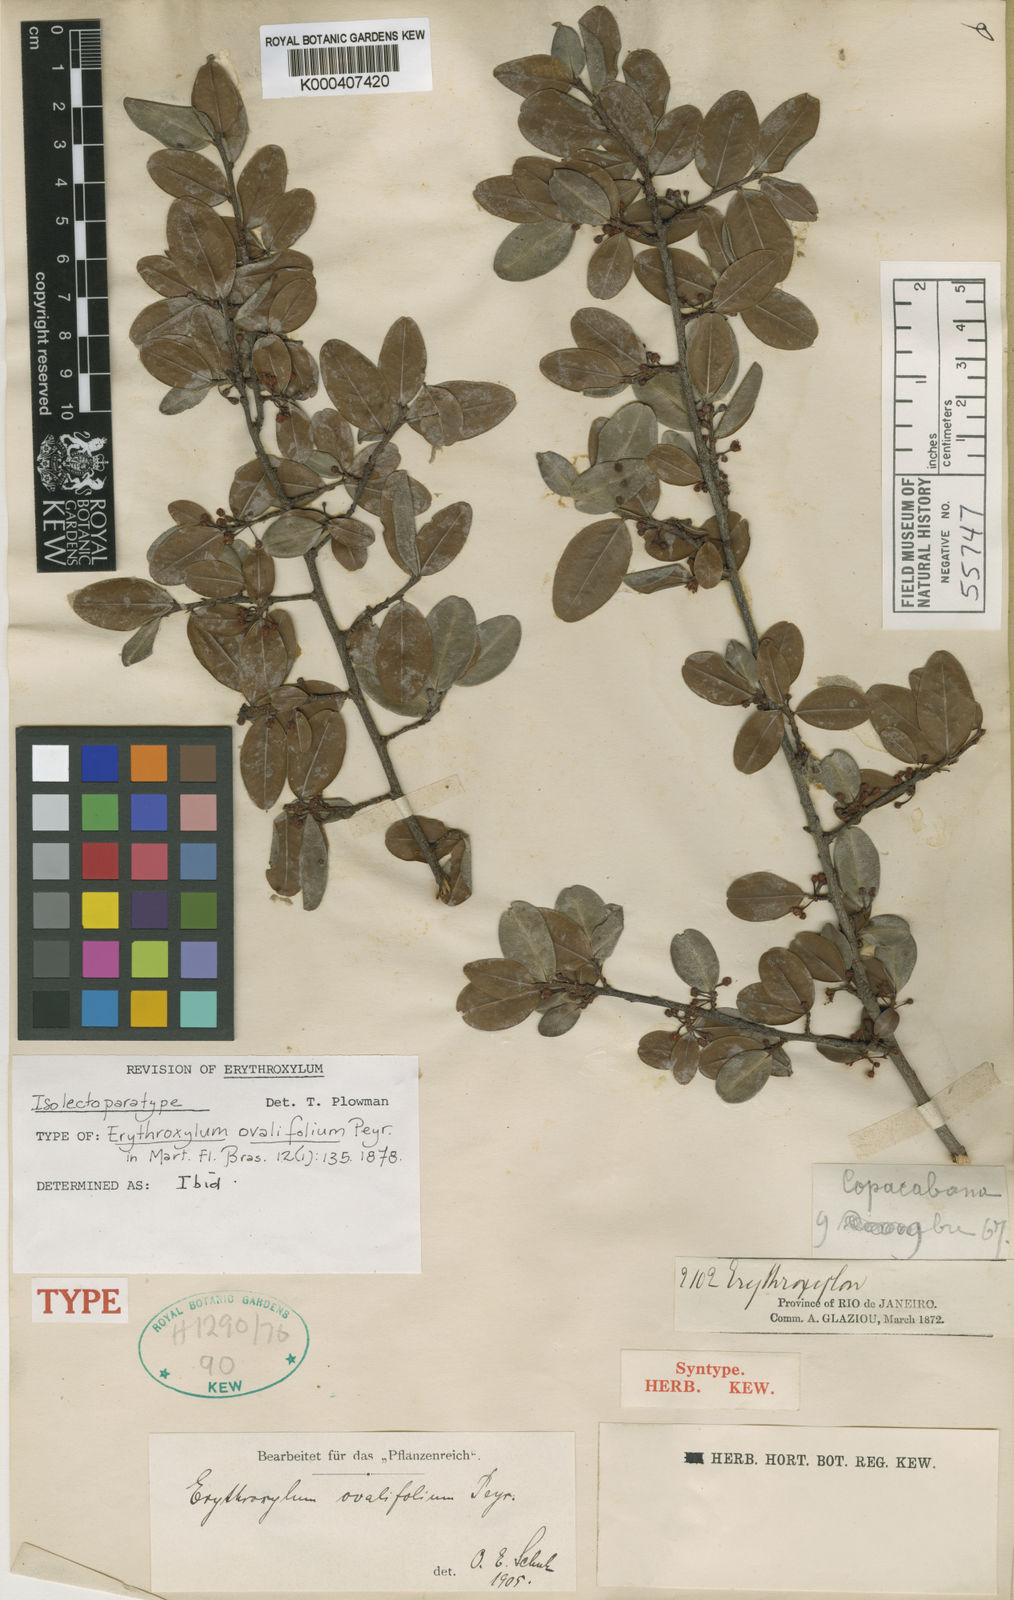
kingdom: Plantae
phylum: Tracheophyta
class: Magnoliopsida
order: Malpighiales
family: Erythroxylaceae
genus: Erythroxylum
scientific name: Erythroxylum ovalifolium
